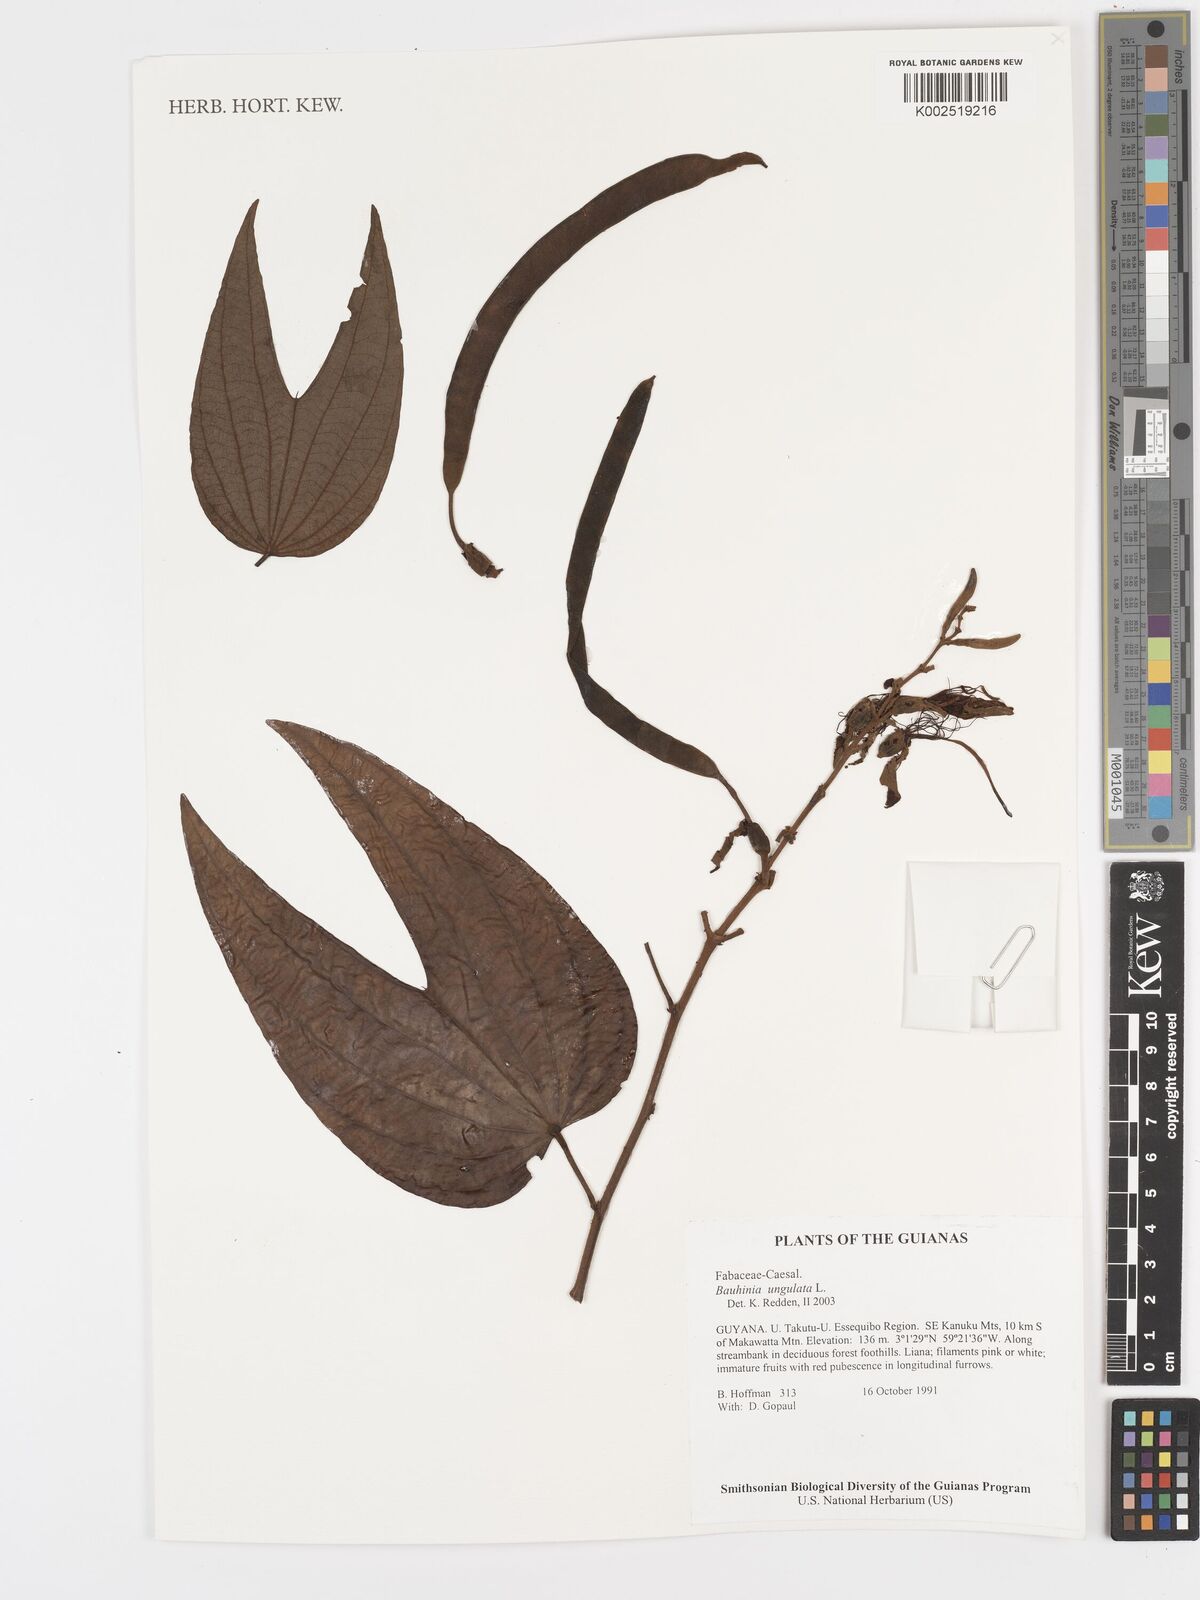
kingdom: Plantae
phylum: Tracheophyta
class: Magnoliopsida
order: Fabales
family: Fabaceae
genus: Bauhinia
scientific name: Bauhinia ungulata
